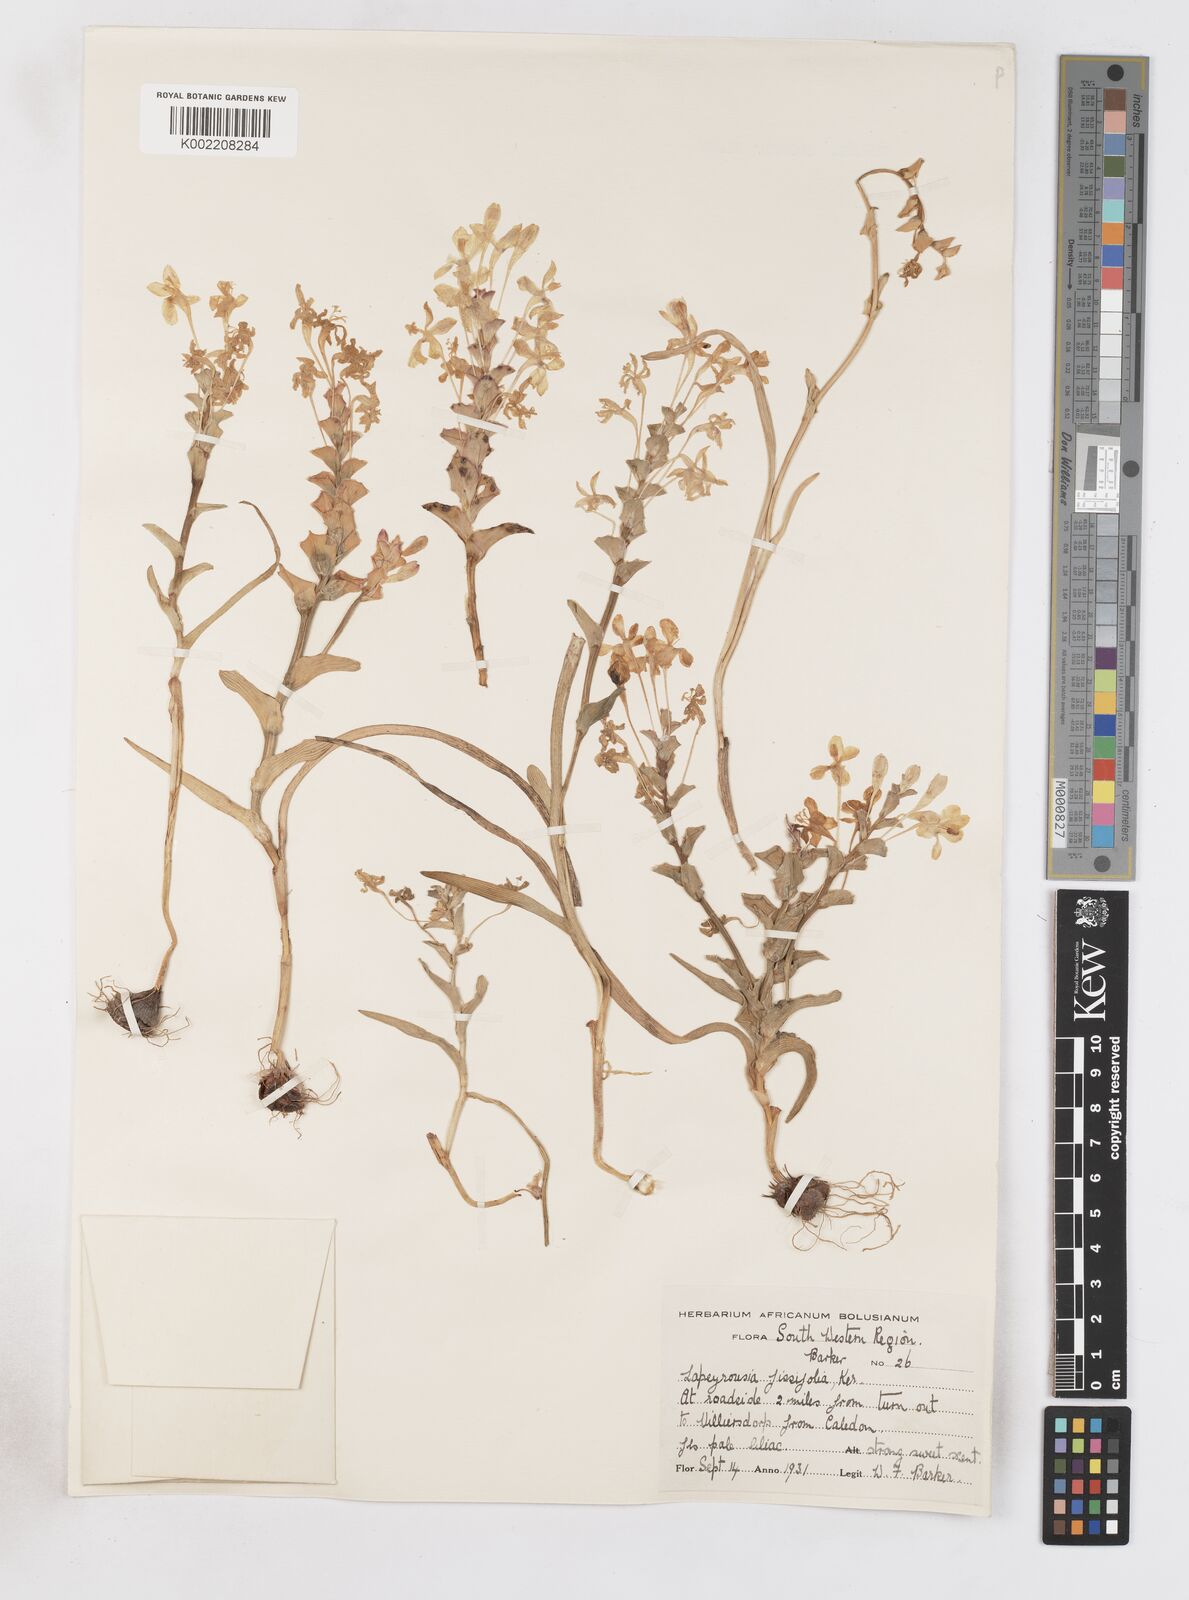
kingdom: Plantae
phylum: Tracheophyta
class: Liliopsida
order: Asparagales
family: Iridaceae
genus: Lapeirousia
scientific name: Lapeirousia pyramidalis
